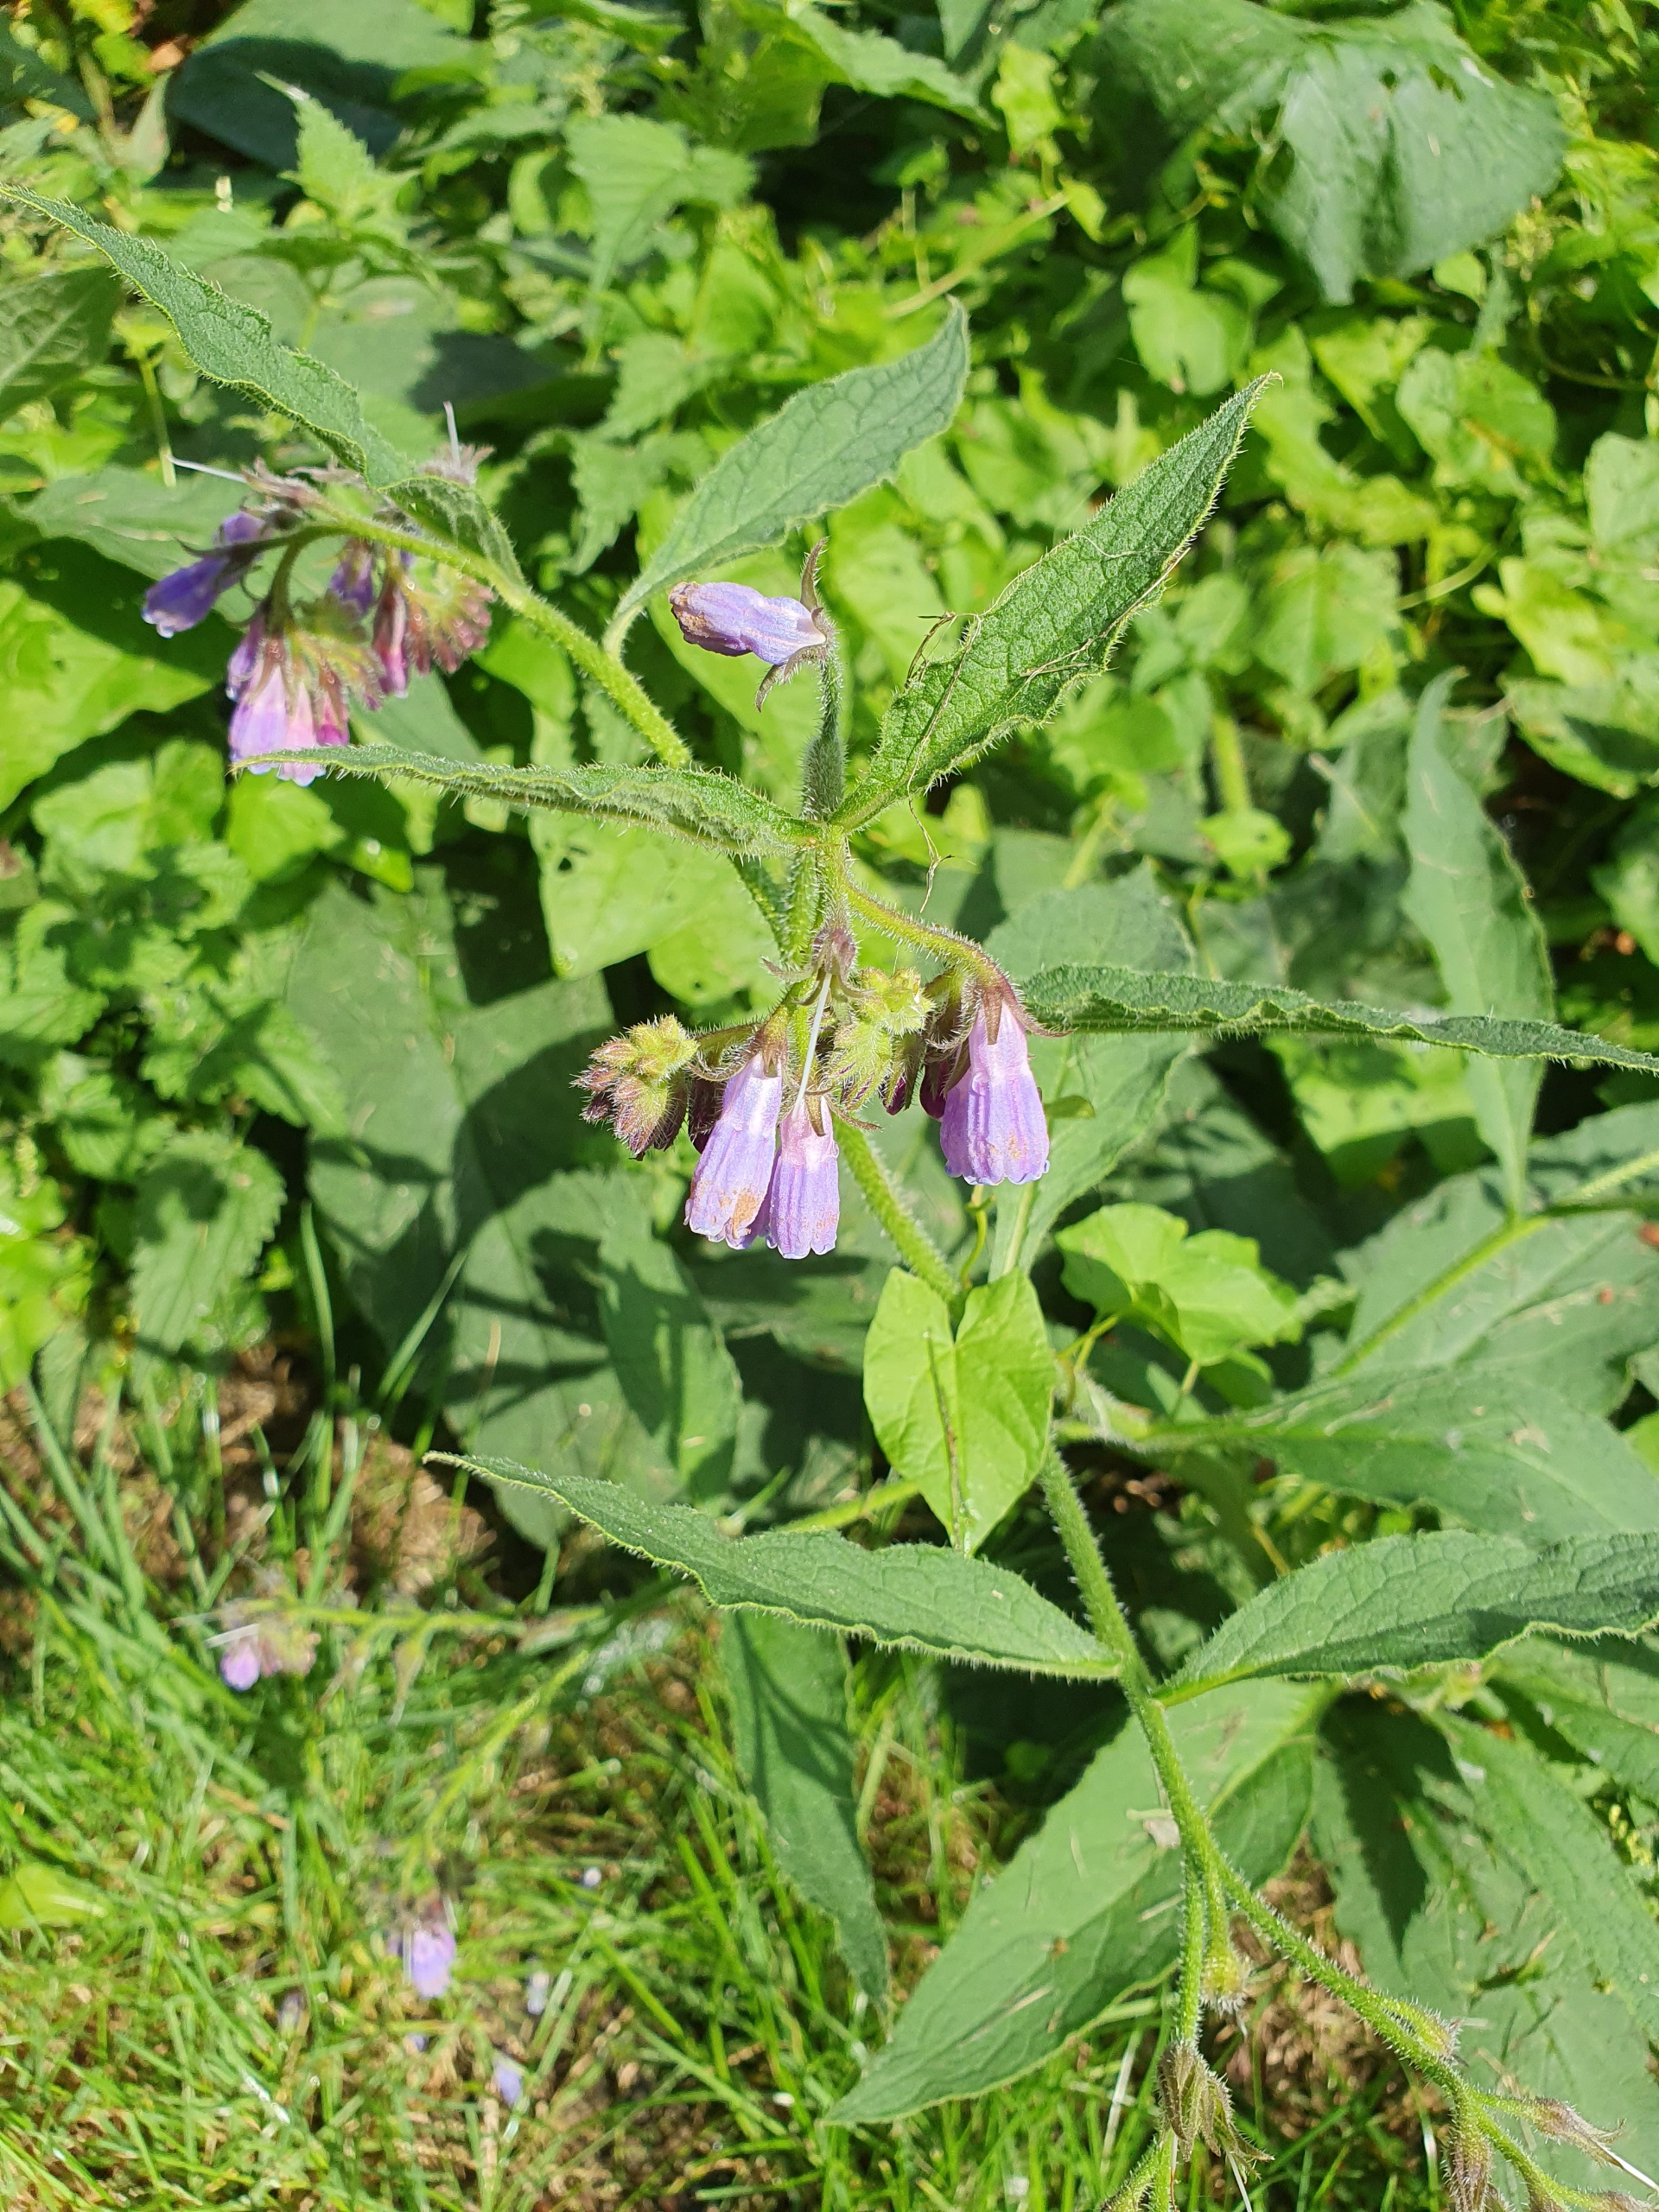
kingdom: Plantae
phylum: Tracheophyta
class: Magnoliopsida
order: Boraginales
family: Boraginaceae
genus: Symphytum
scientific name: Symphytum uplandicum
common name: Foder-kulsukker
